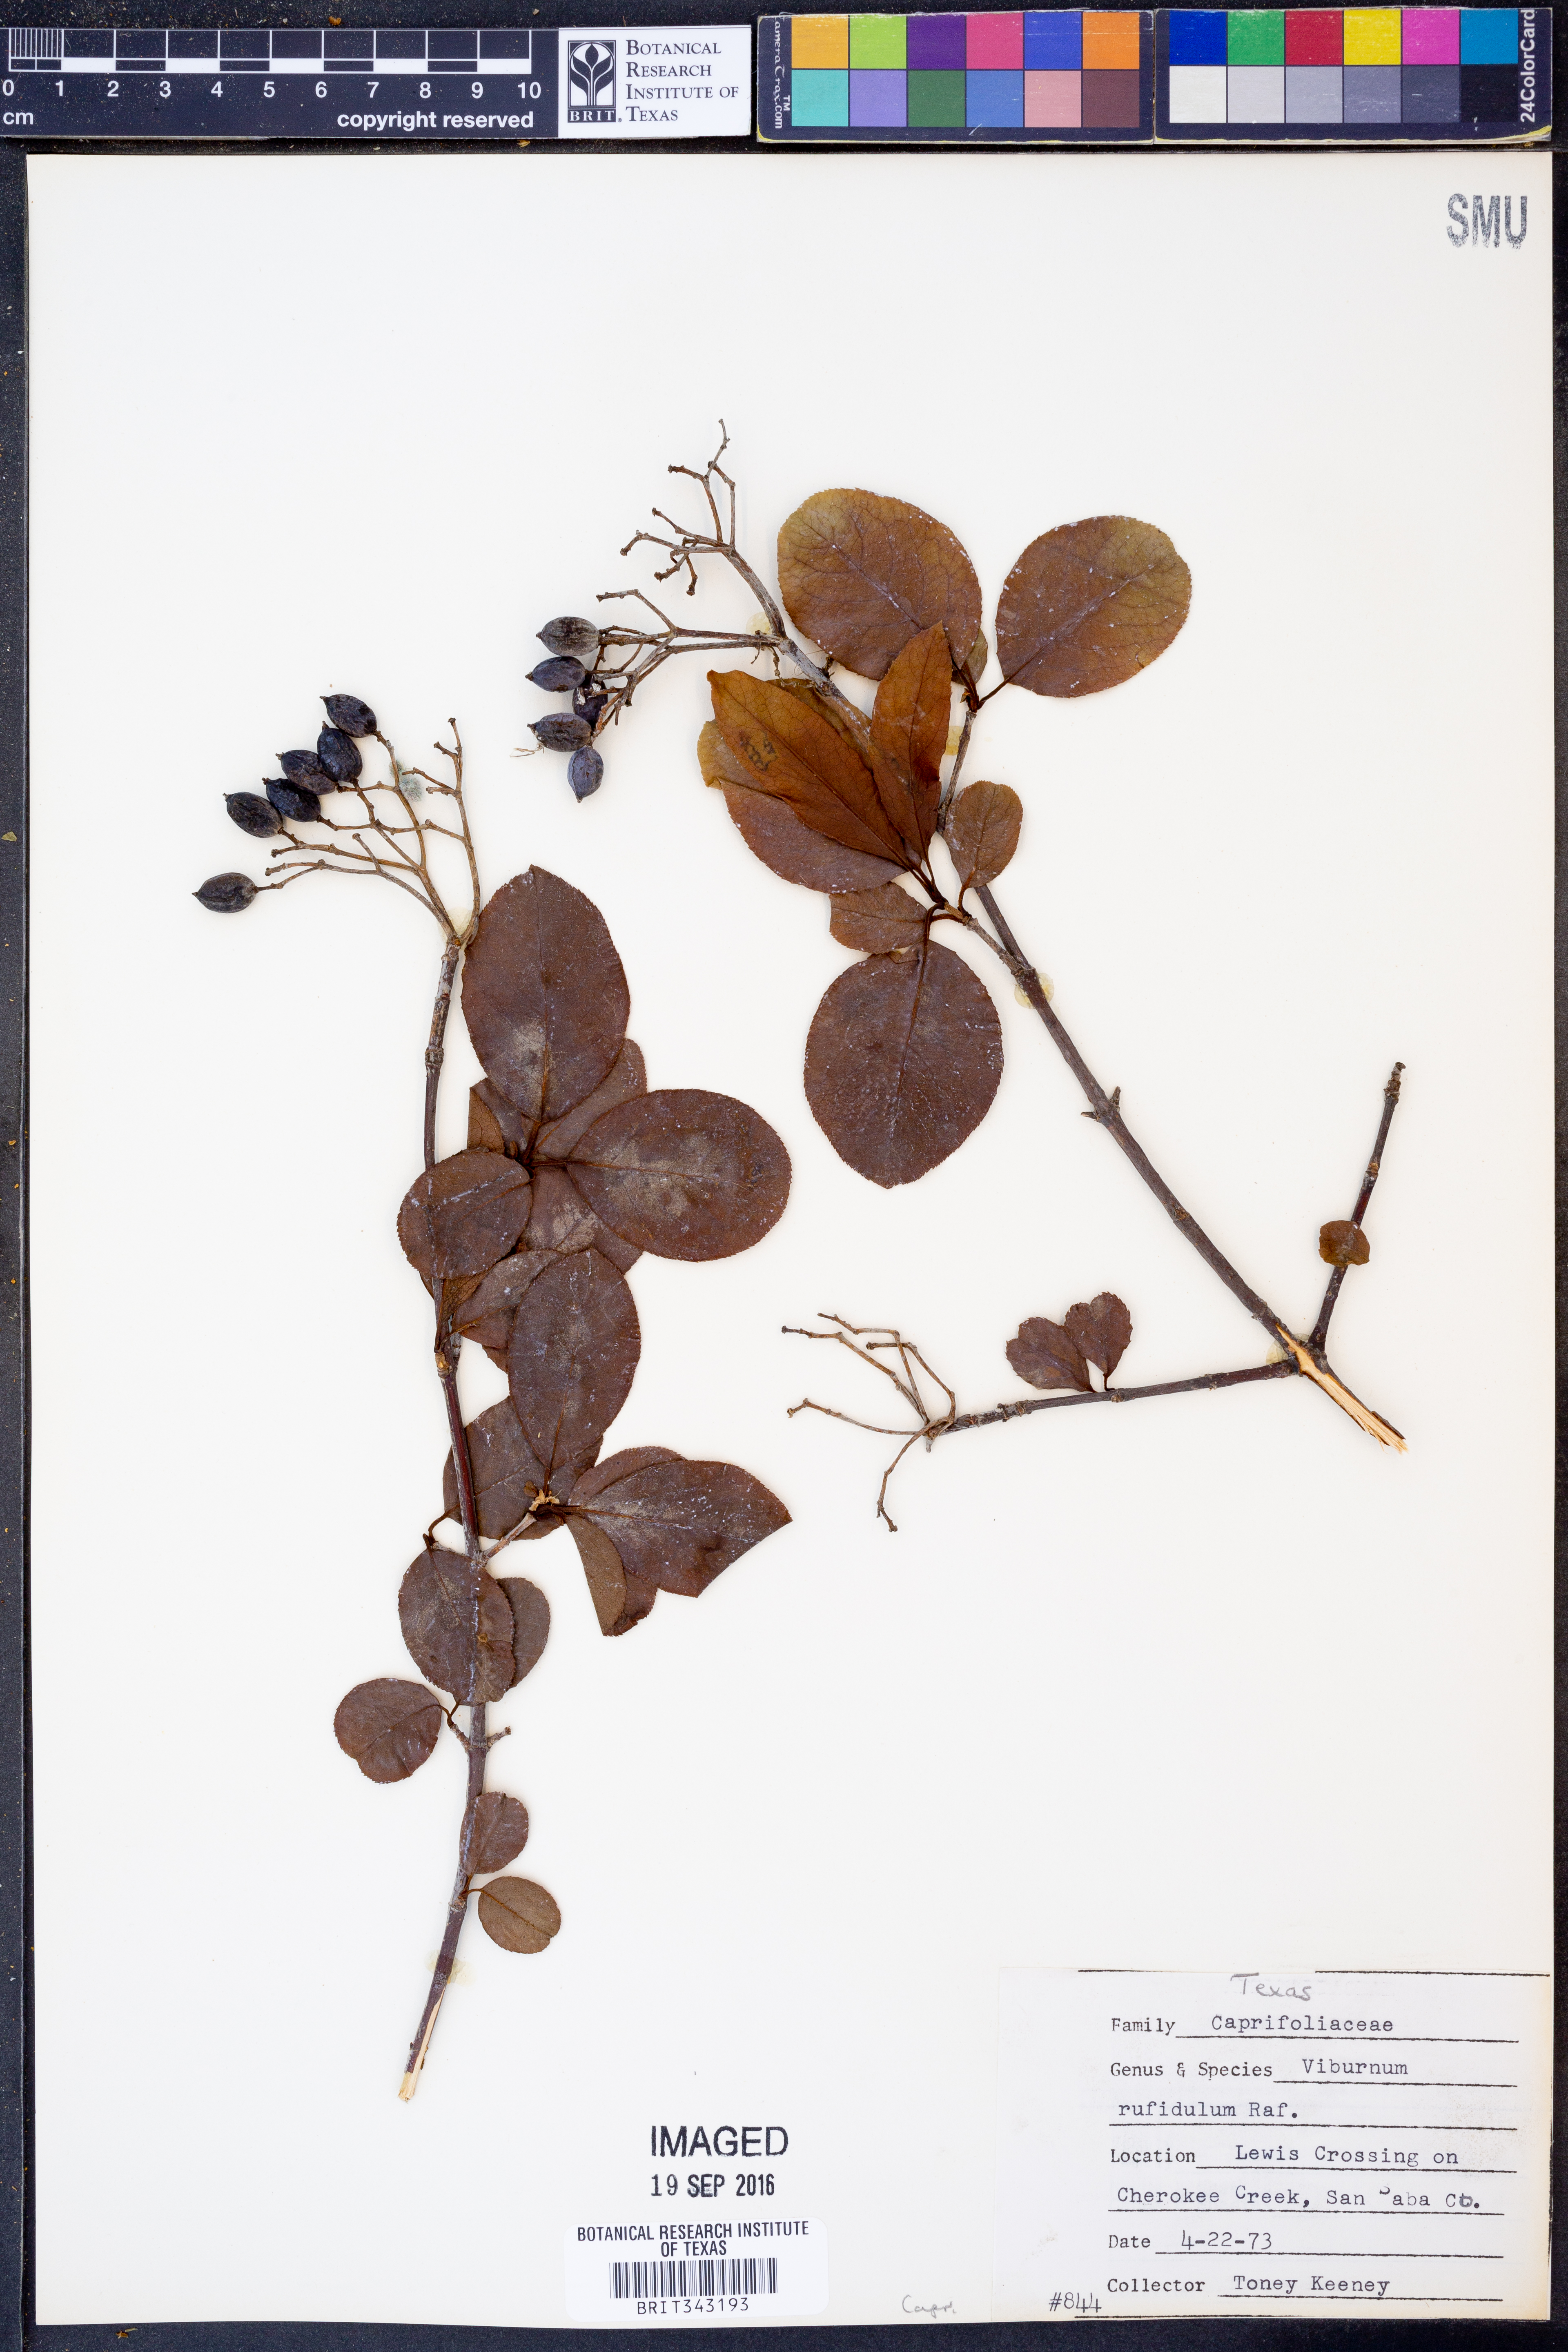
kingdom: Plantae
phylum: Tracheophyta
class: Magnoliopsida
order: Dipsacales
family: Viburnaceae
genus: Viburnum
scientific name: Viburnum rufidulum
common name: Blue haw
